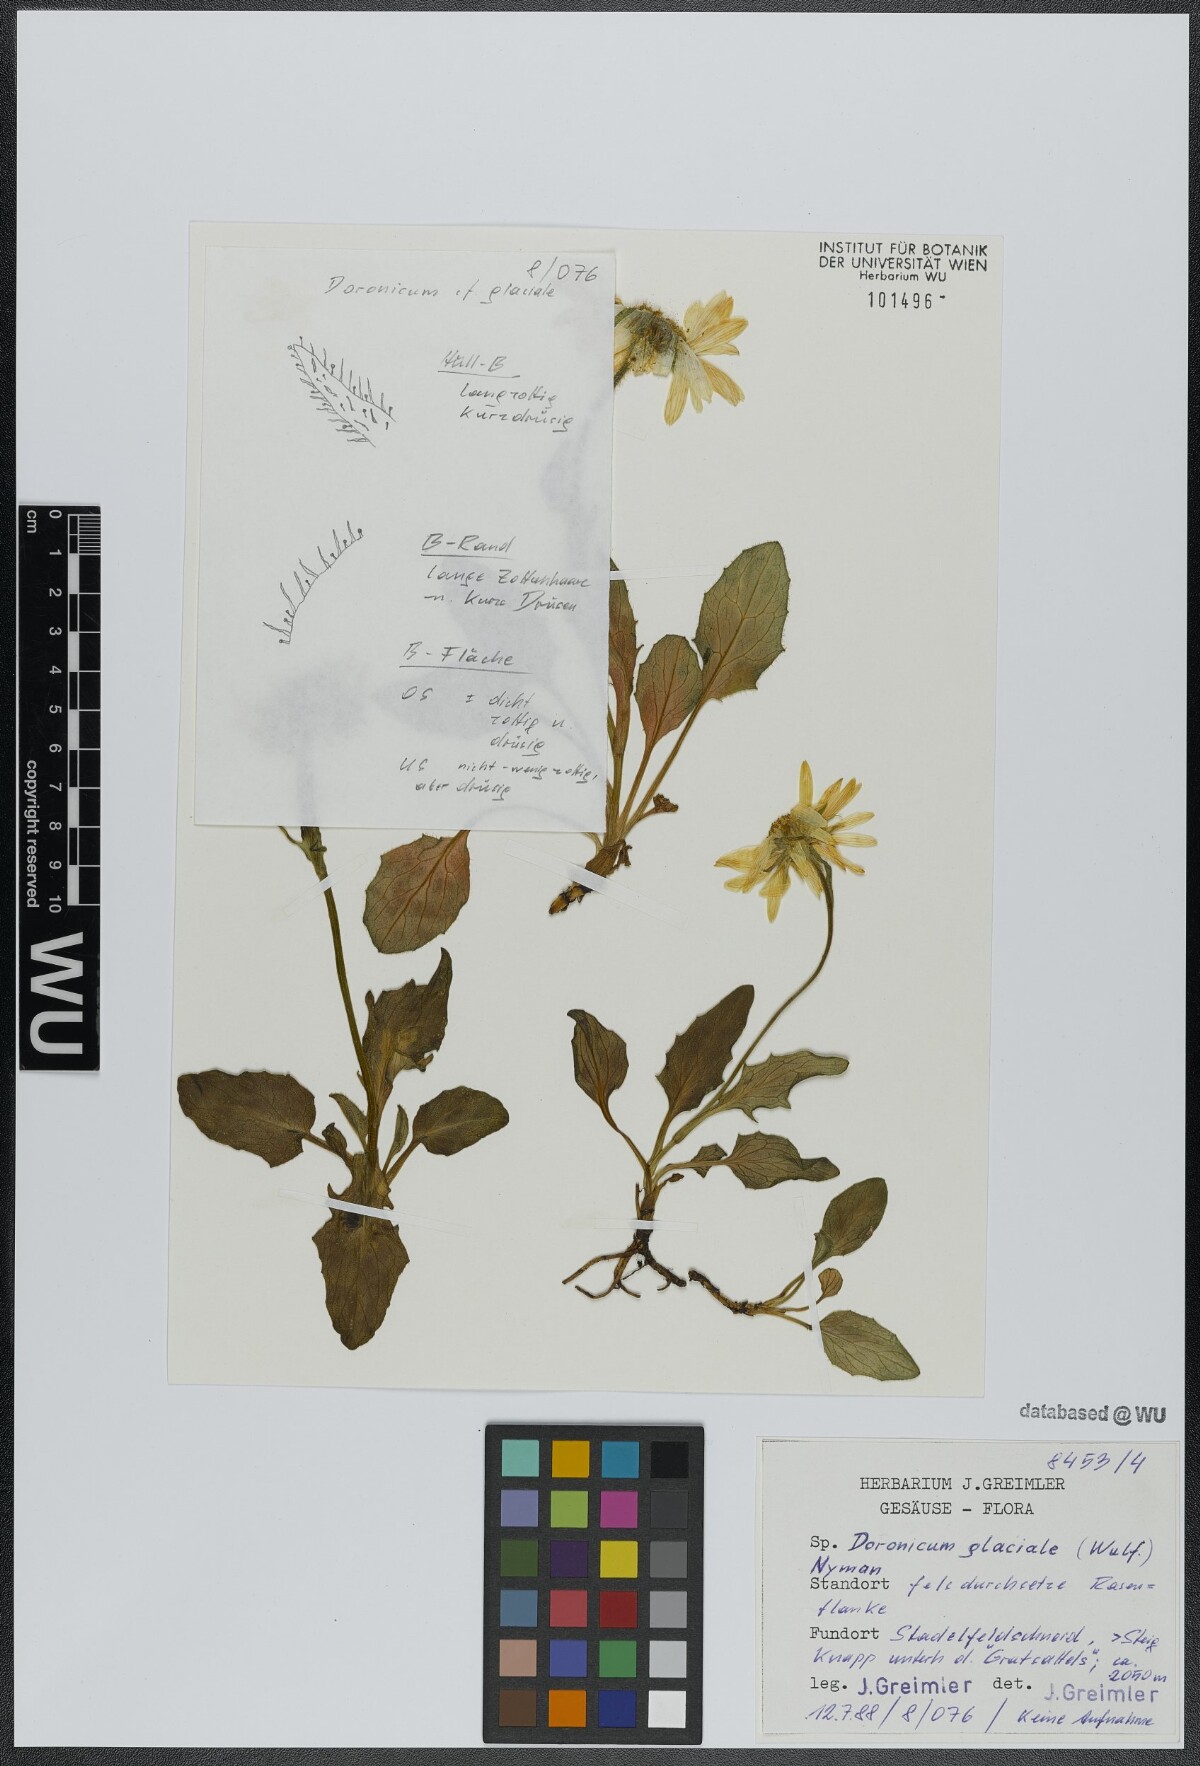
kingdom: Plantae
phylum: Tracheophyta
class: Magnoliopsida
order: Asterales
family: Asteraceae
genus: Doronicum
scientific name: Doronicum glaciale
